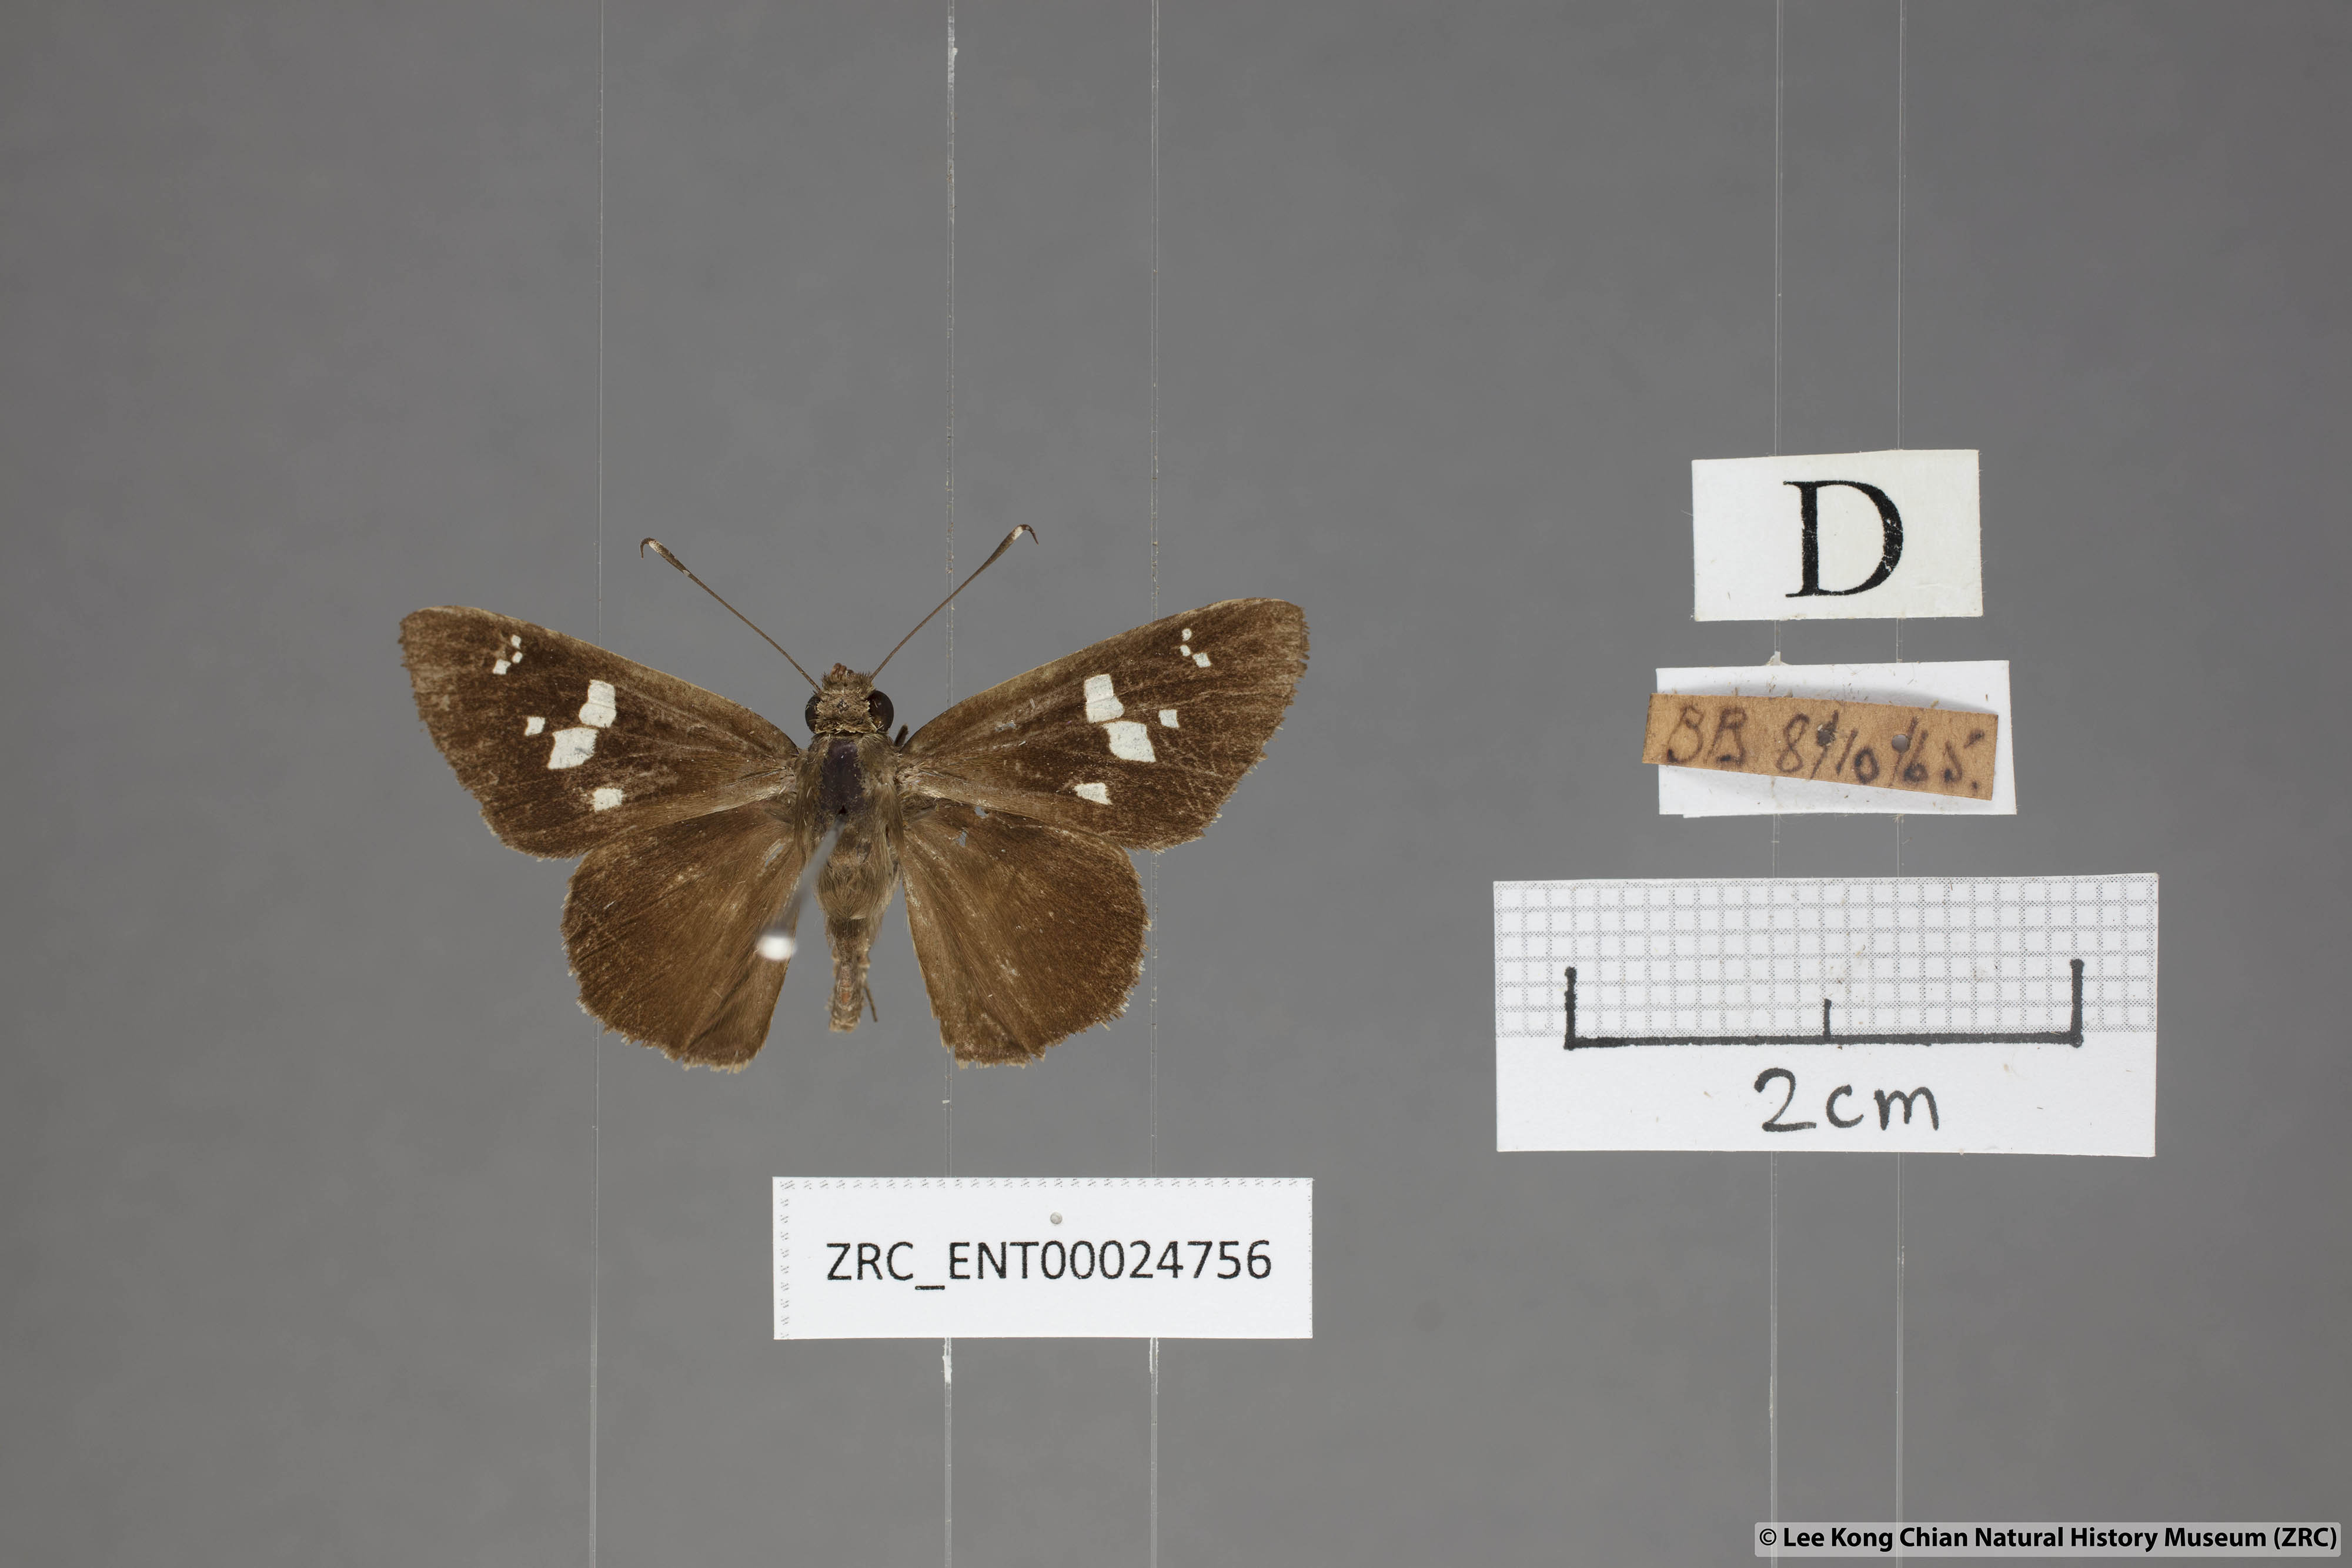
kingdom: Animalia
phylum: Arthropoda
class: Insecta
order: Lepidoptera
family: Hesperiidae
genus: Hyarotis
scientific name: Hyarotis adrastus
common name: Tree flitter
